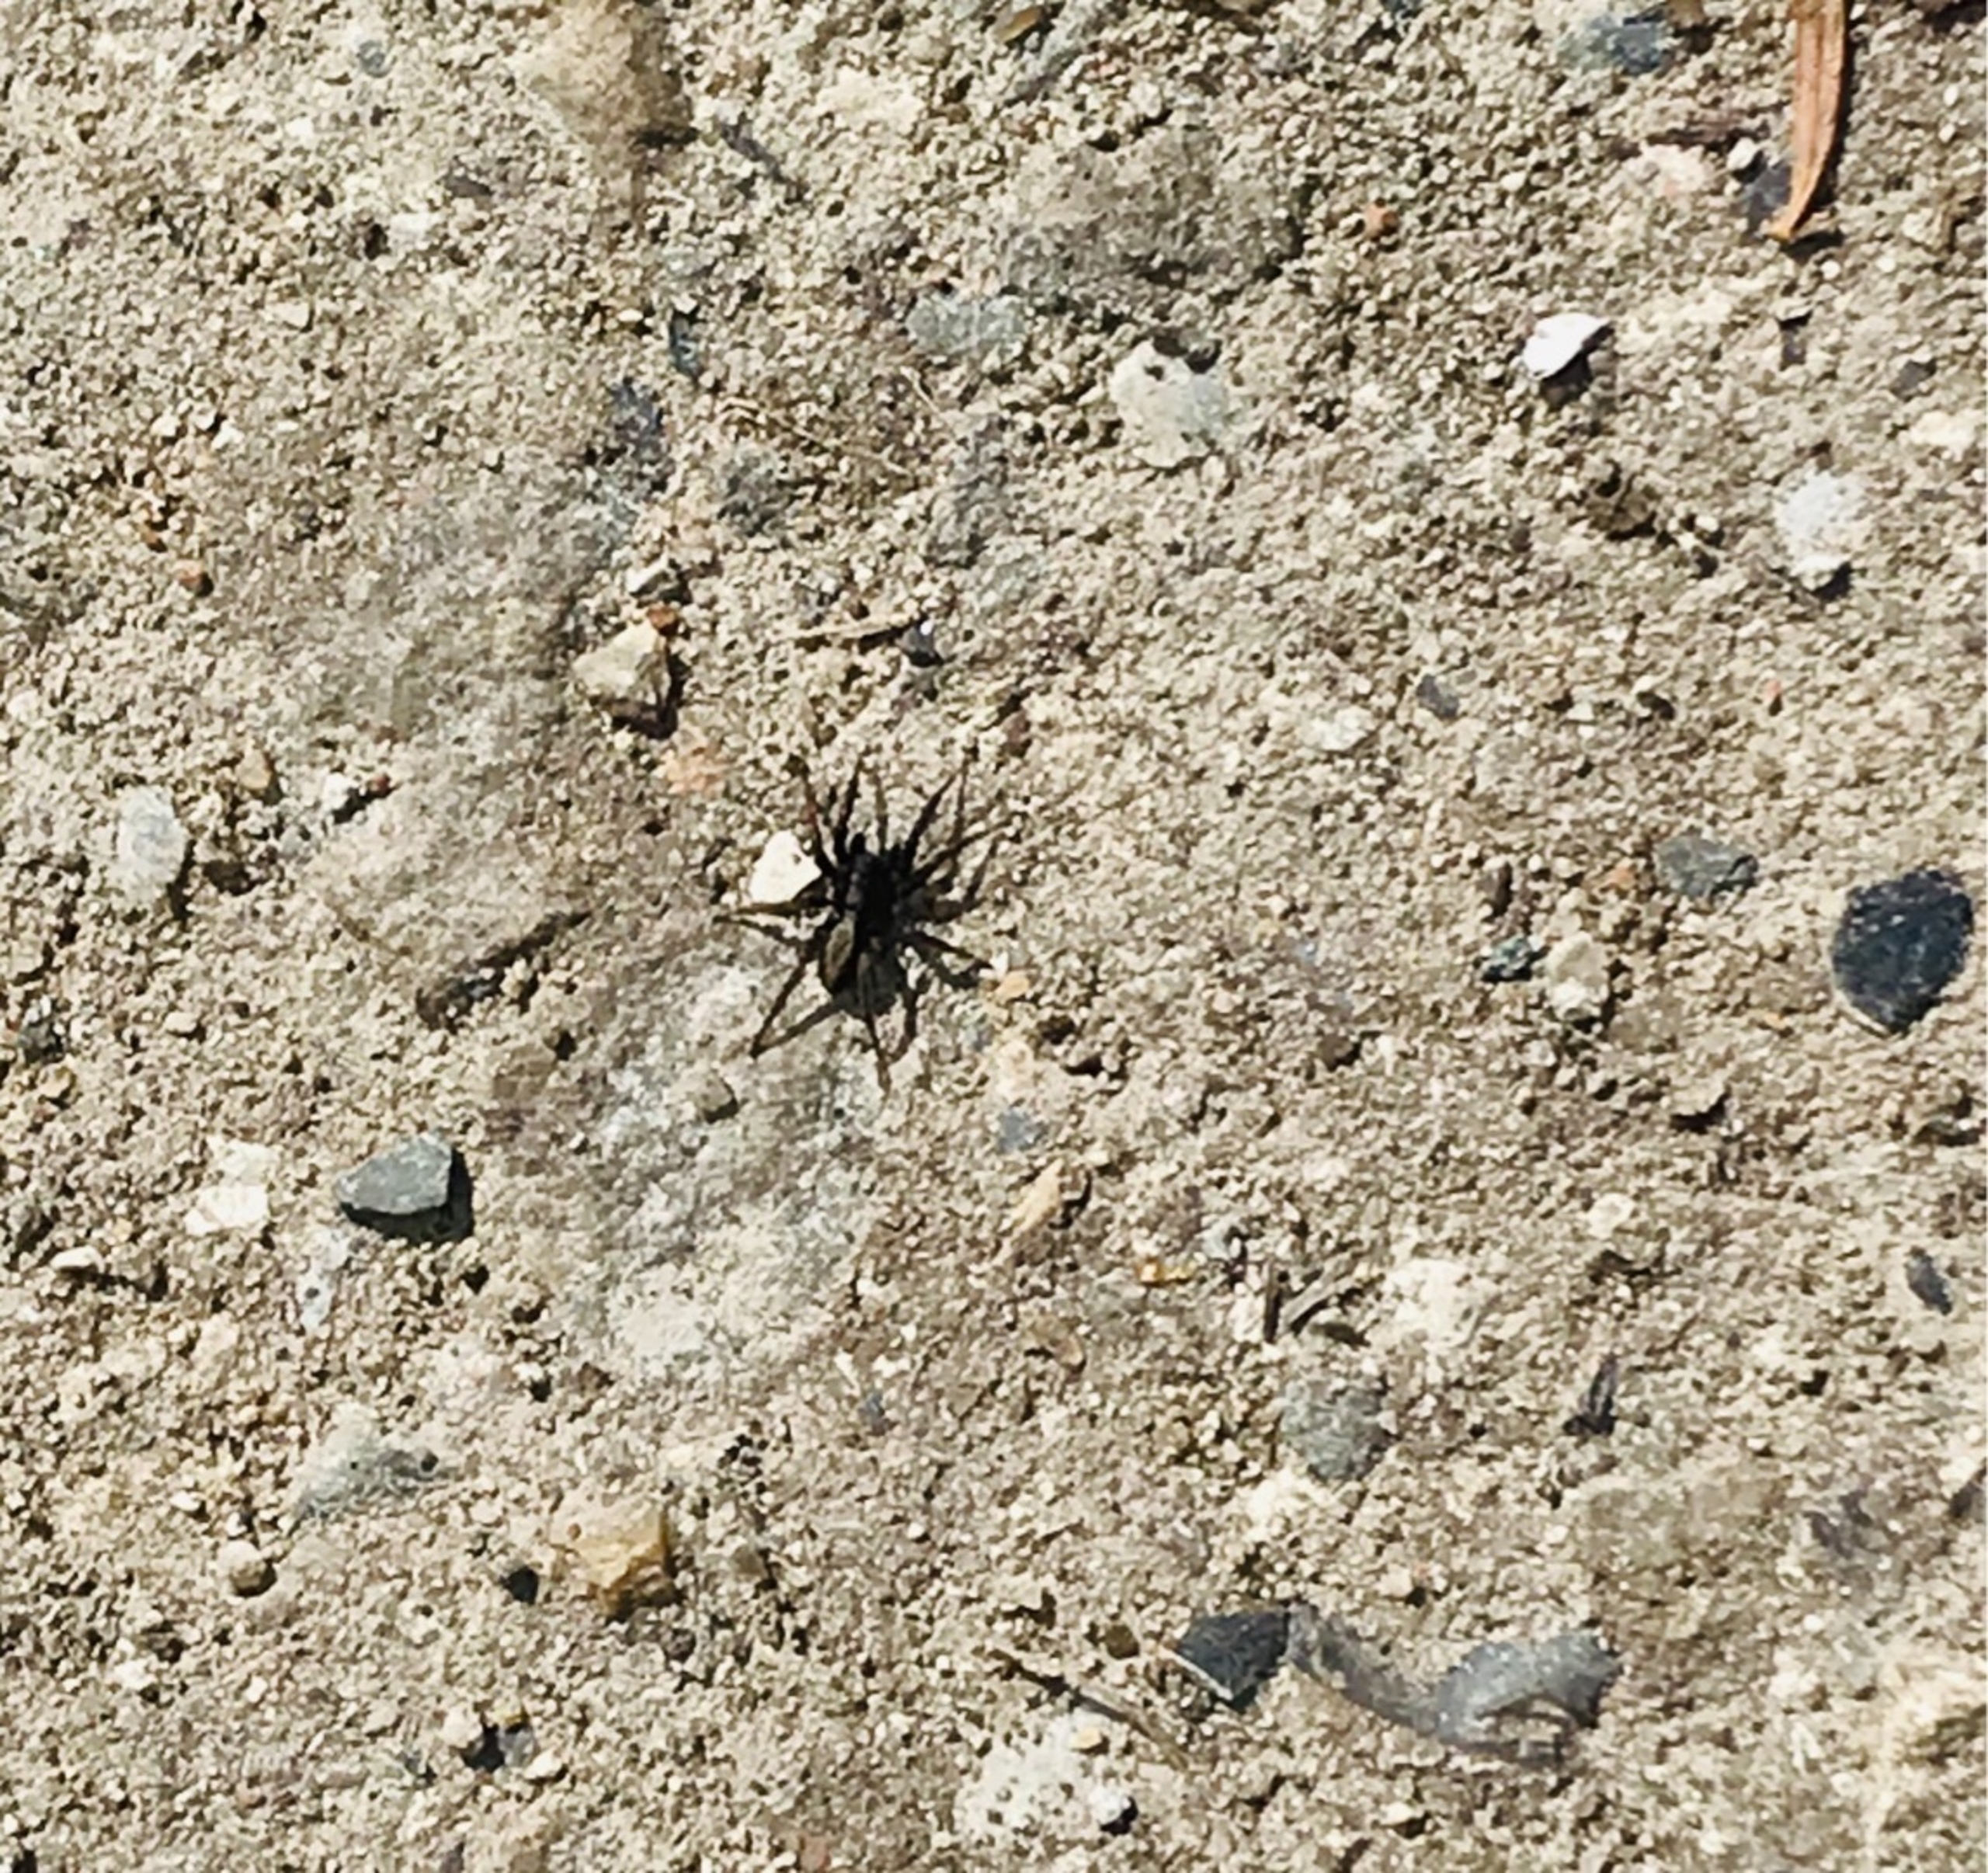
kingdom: Animalia
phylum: Arthropoda
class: Arachnida
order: Araneae
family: Lycosidae
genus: Alopecosa
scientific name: Alopecosa pulverulenta
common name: Kilekæmpejæger
